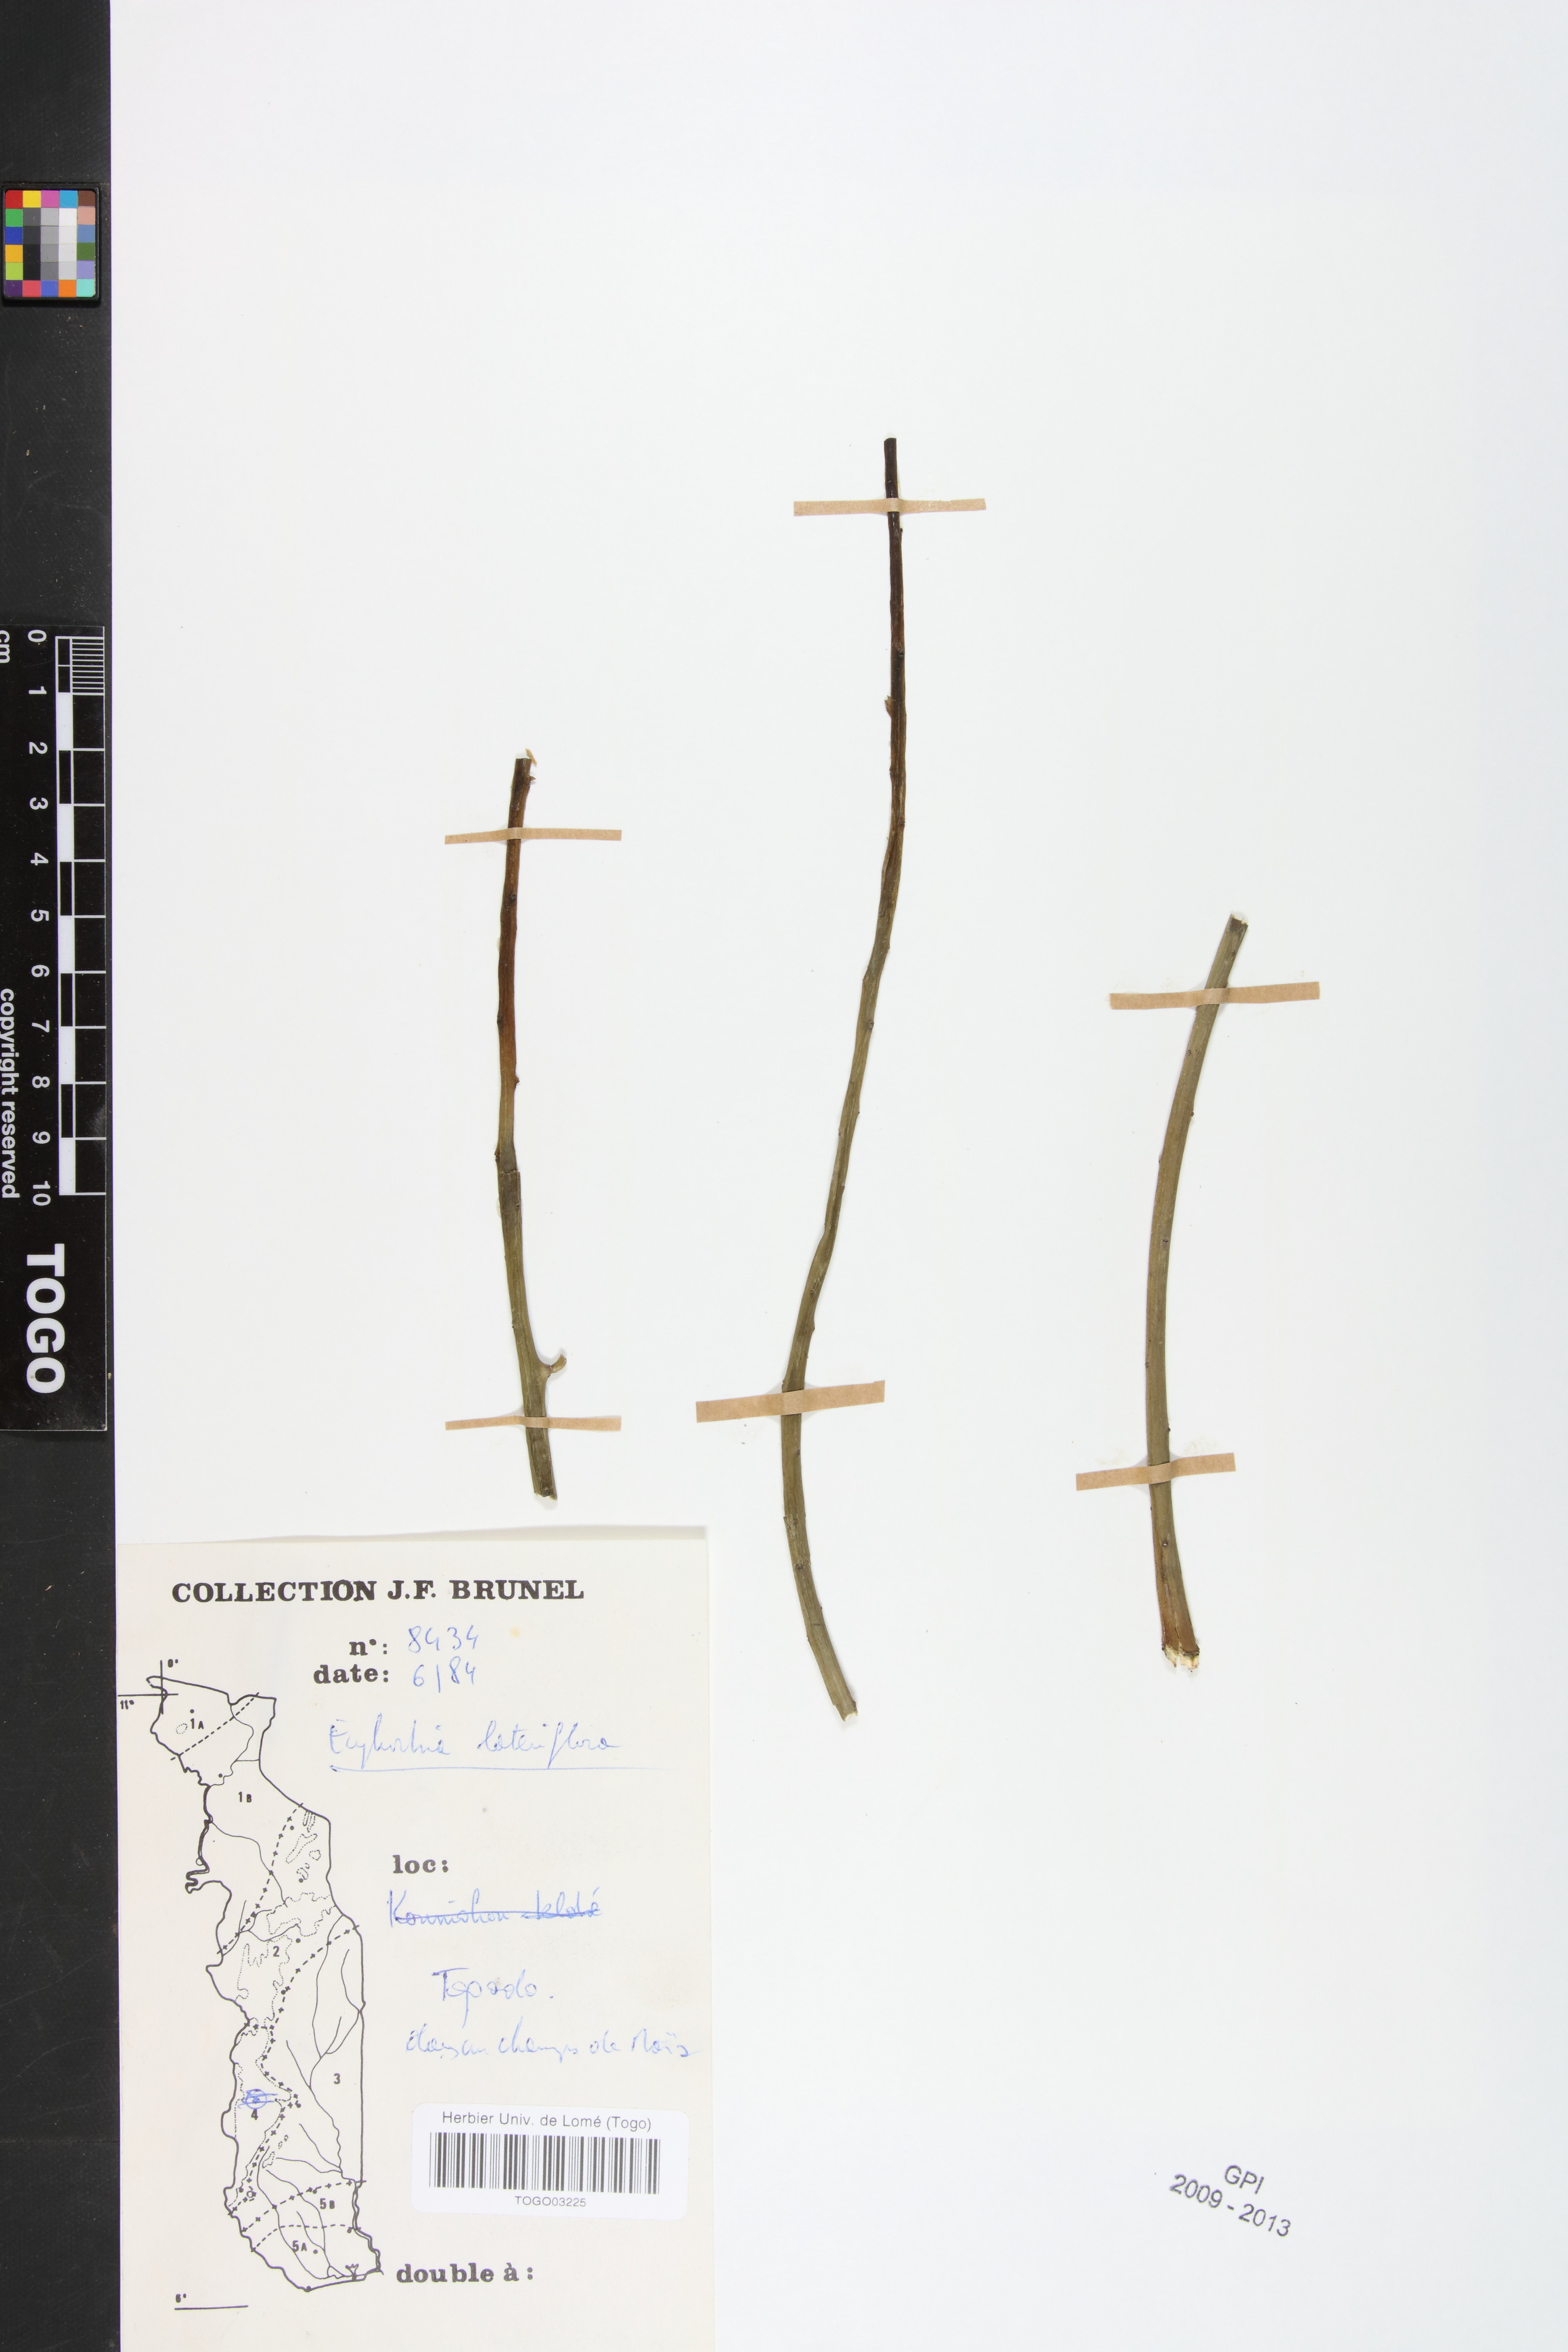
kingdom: Plantae
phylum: Tracheophyta
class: Magnoliopsida
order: Malpighiales
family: Euphorbiaceae
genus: Euphorbia
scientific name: Euphorbia lateriflora
